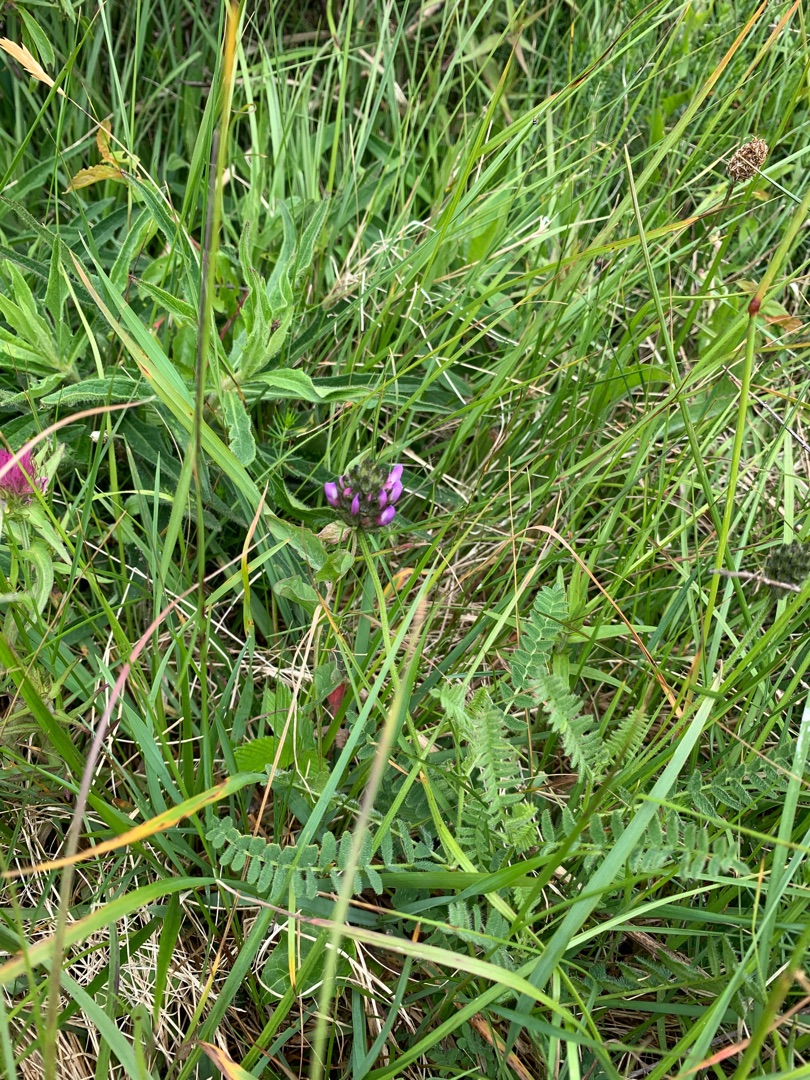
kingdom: Plantae
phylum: Tracheophyta
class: Magnoliopsida
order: Fabales
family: Fabaceae
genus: Astragalus
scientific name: Astragalus danicus
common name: Dansk astragel
